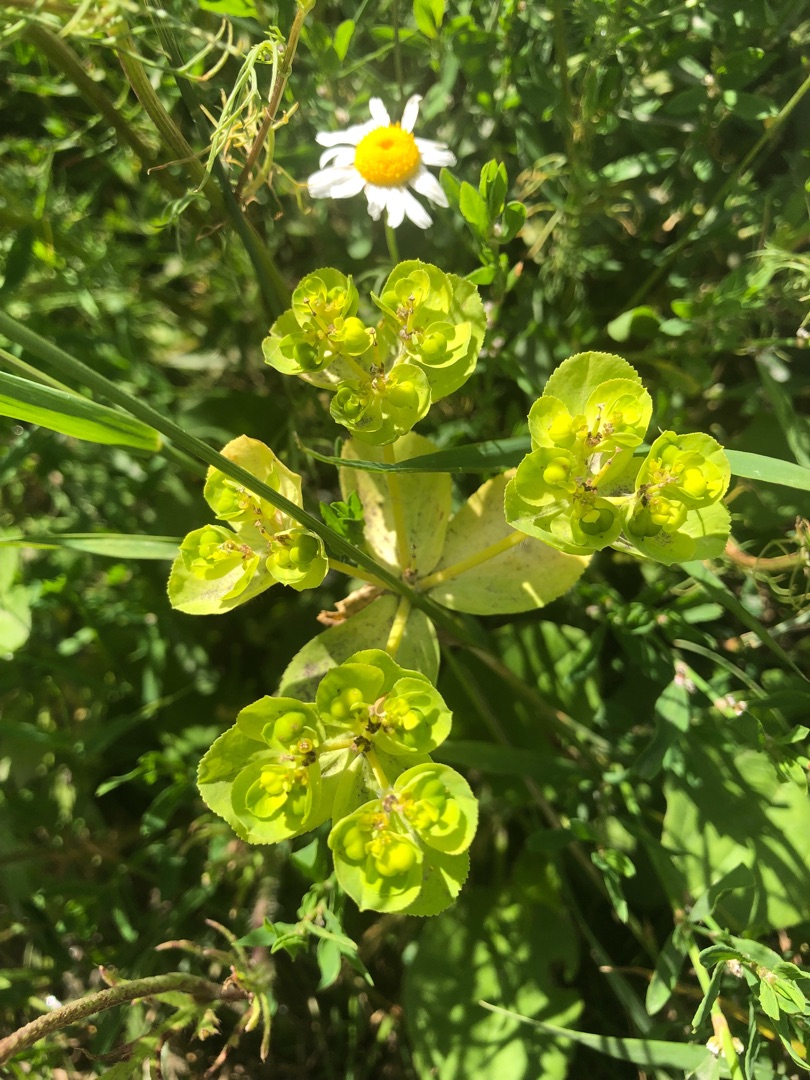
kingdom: Plantae
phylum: Tracheophyta
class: Magnoliopsida
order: Malpighiales
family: Euphorbiaceae
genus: Euphorbia
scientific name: Euphorbia helioscopia
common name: Skærm-vortemælk
